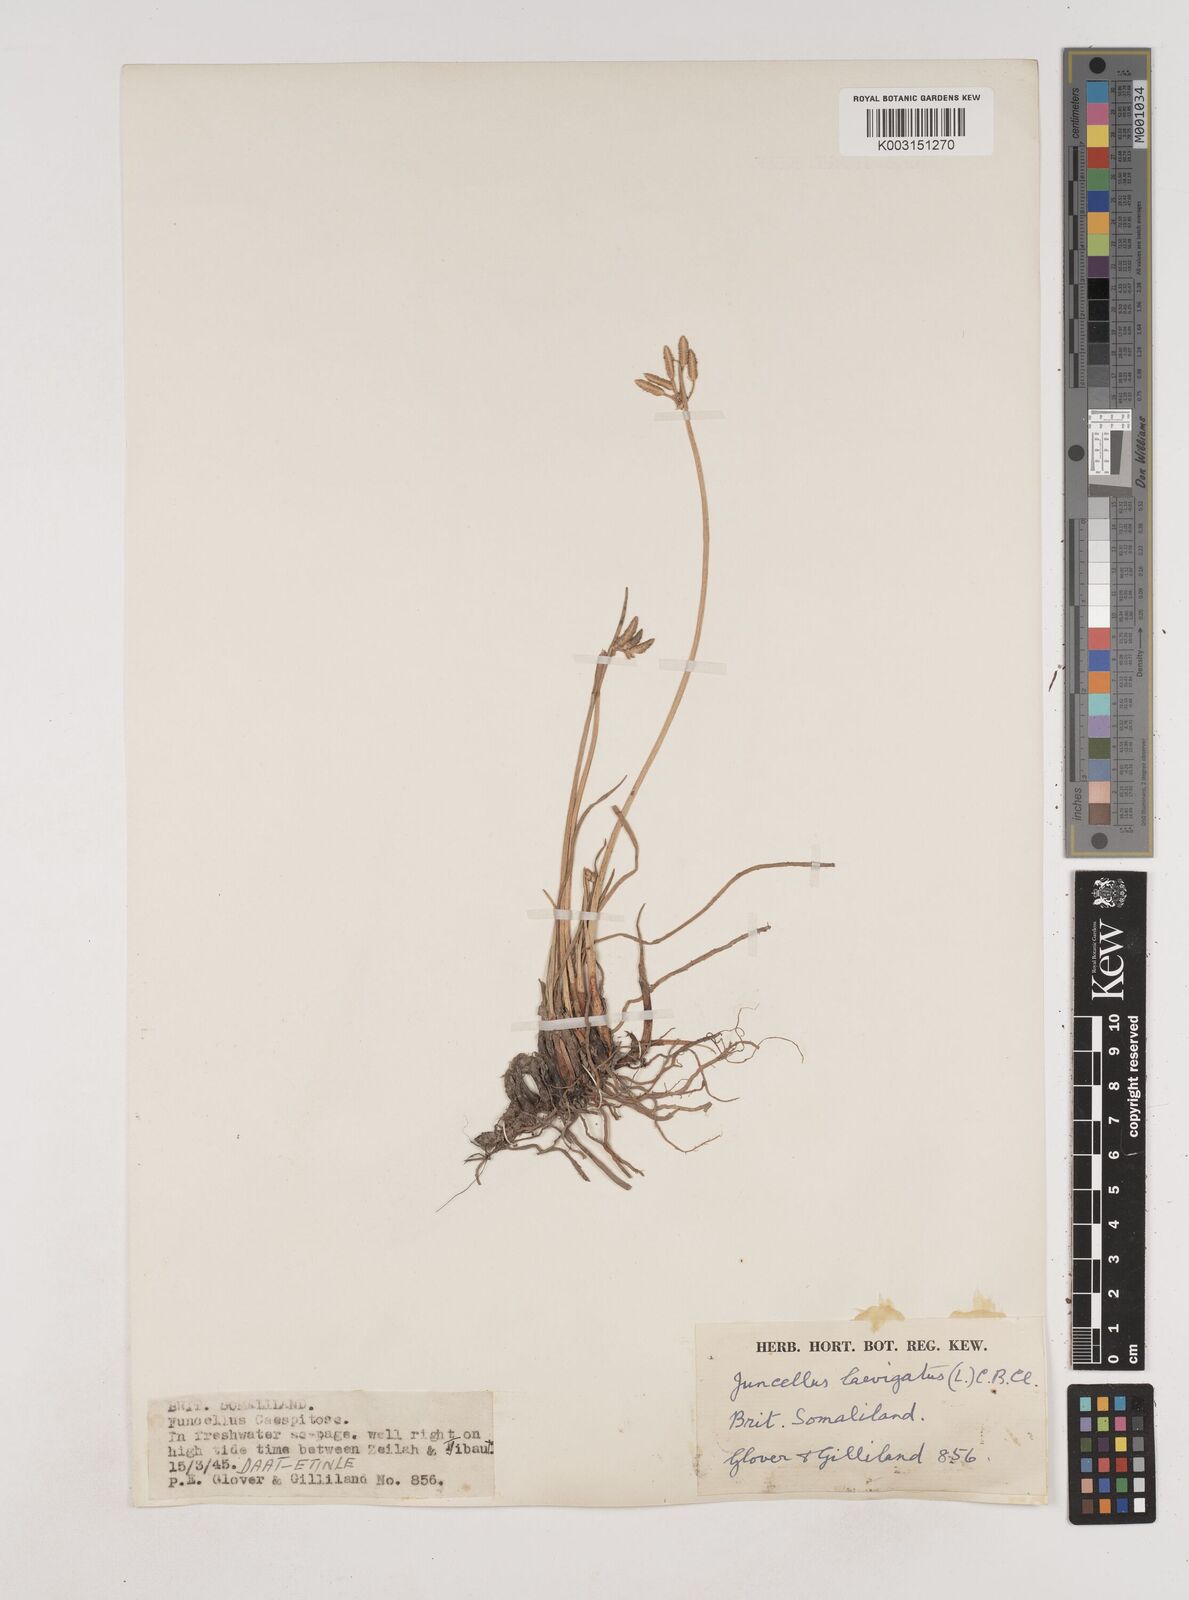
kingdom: Plantae
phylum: Tracheophyta
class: Liliopsida
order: Poales
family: Cyperaceae
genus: Cyperus
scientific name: Cyperus laevigatus
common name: Smooth flat sedge
